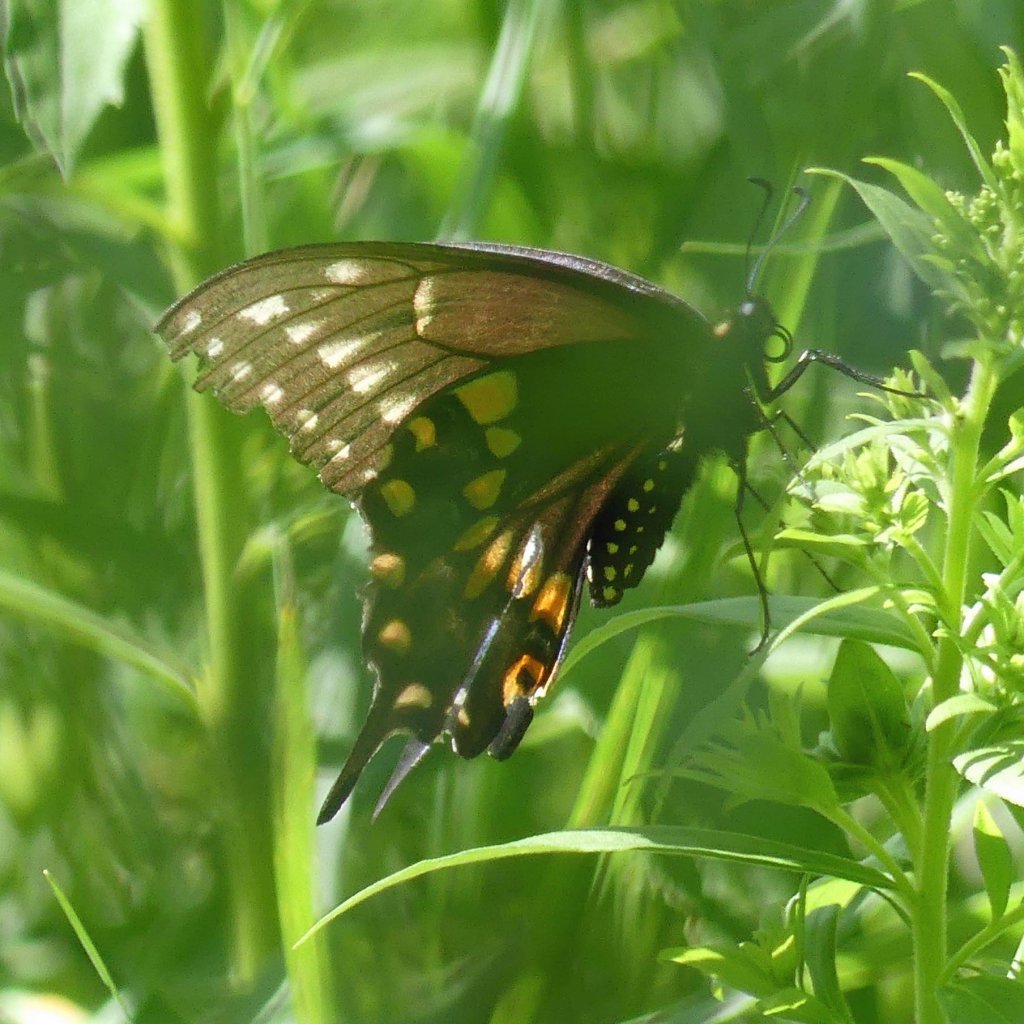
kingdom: Animalia
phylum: Arthropoda
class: Insecta
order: Lepidoptera
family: Papilionidae
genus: Papilio
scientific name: Papilio polyxenes
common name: Black Swallowtail
